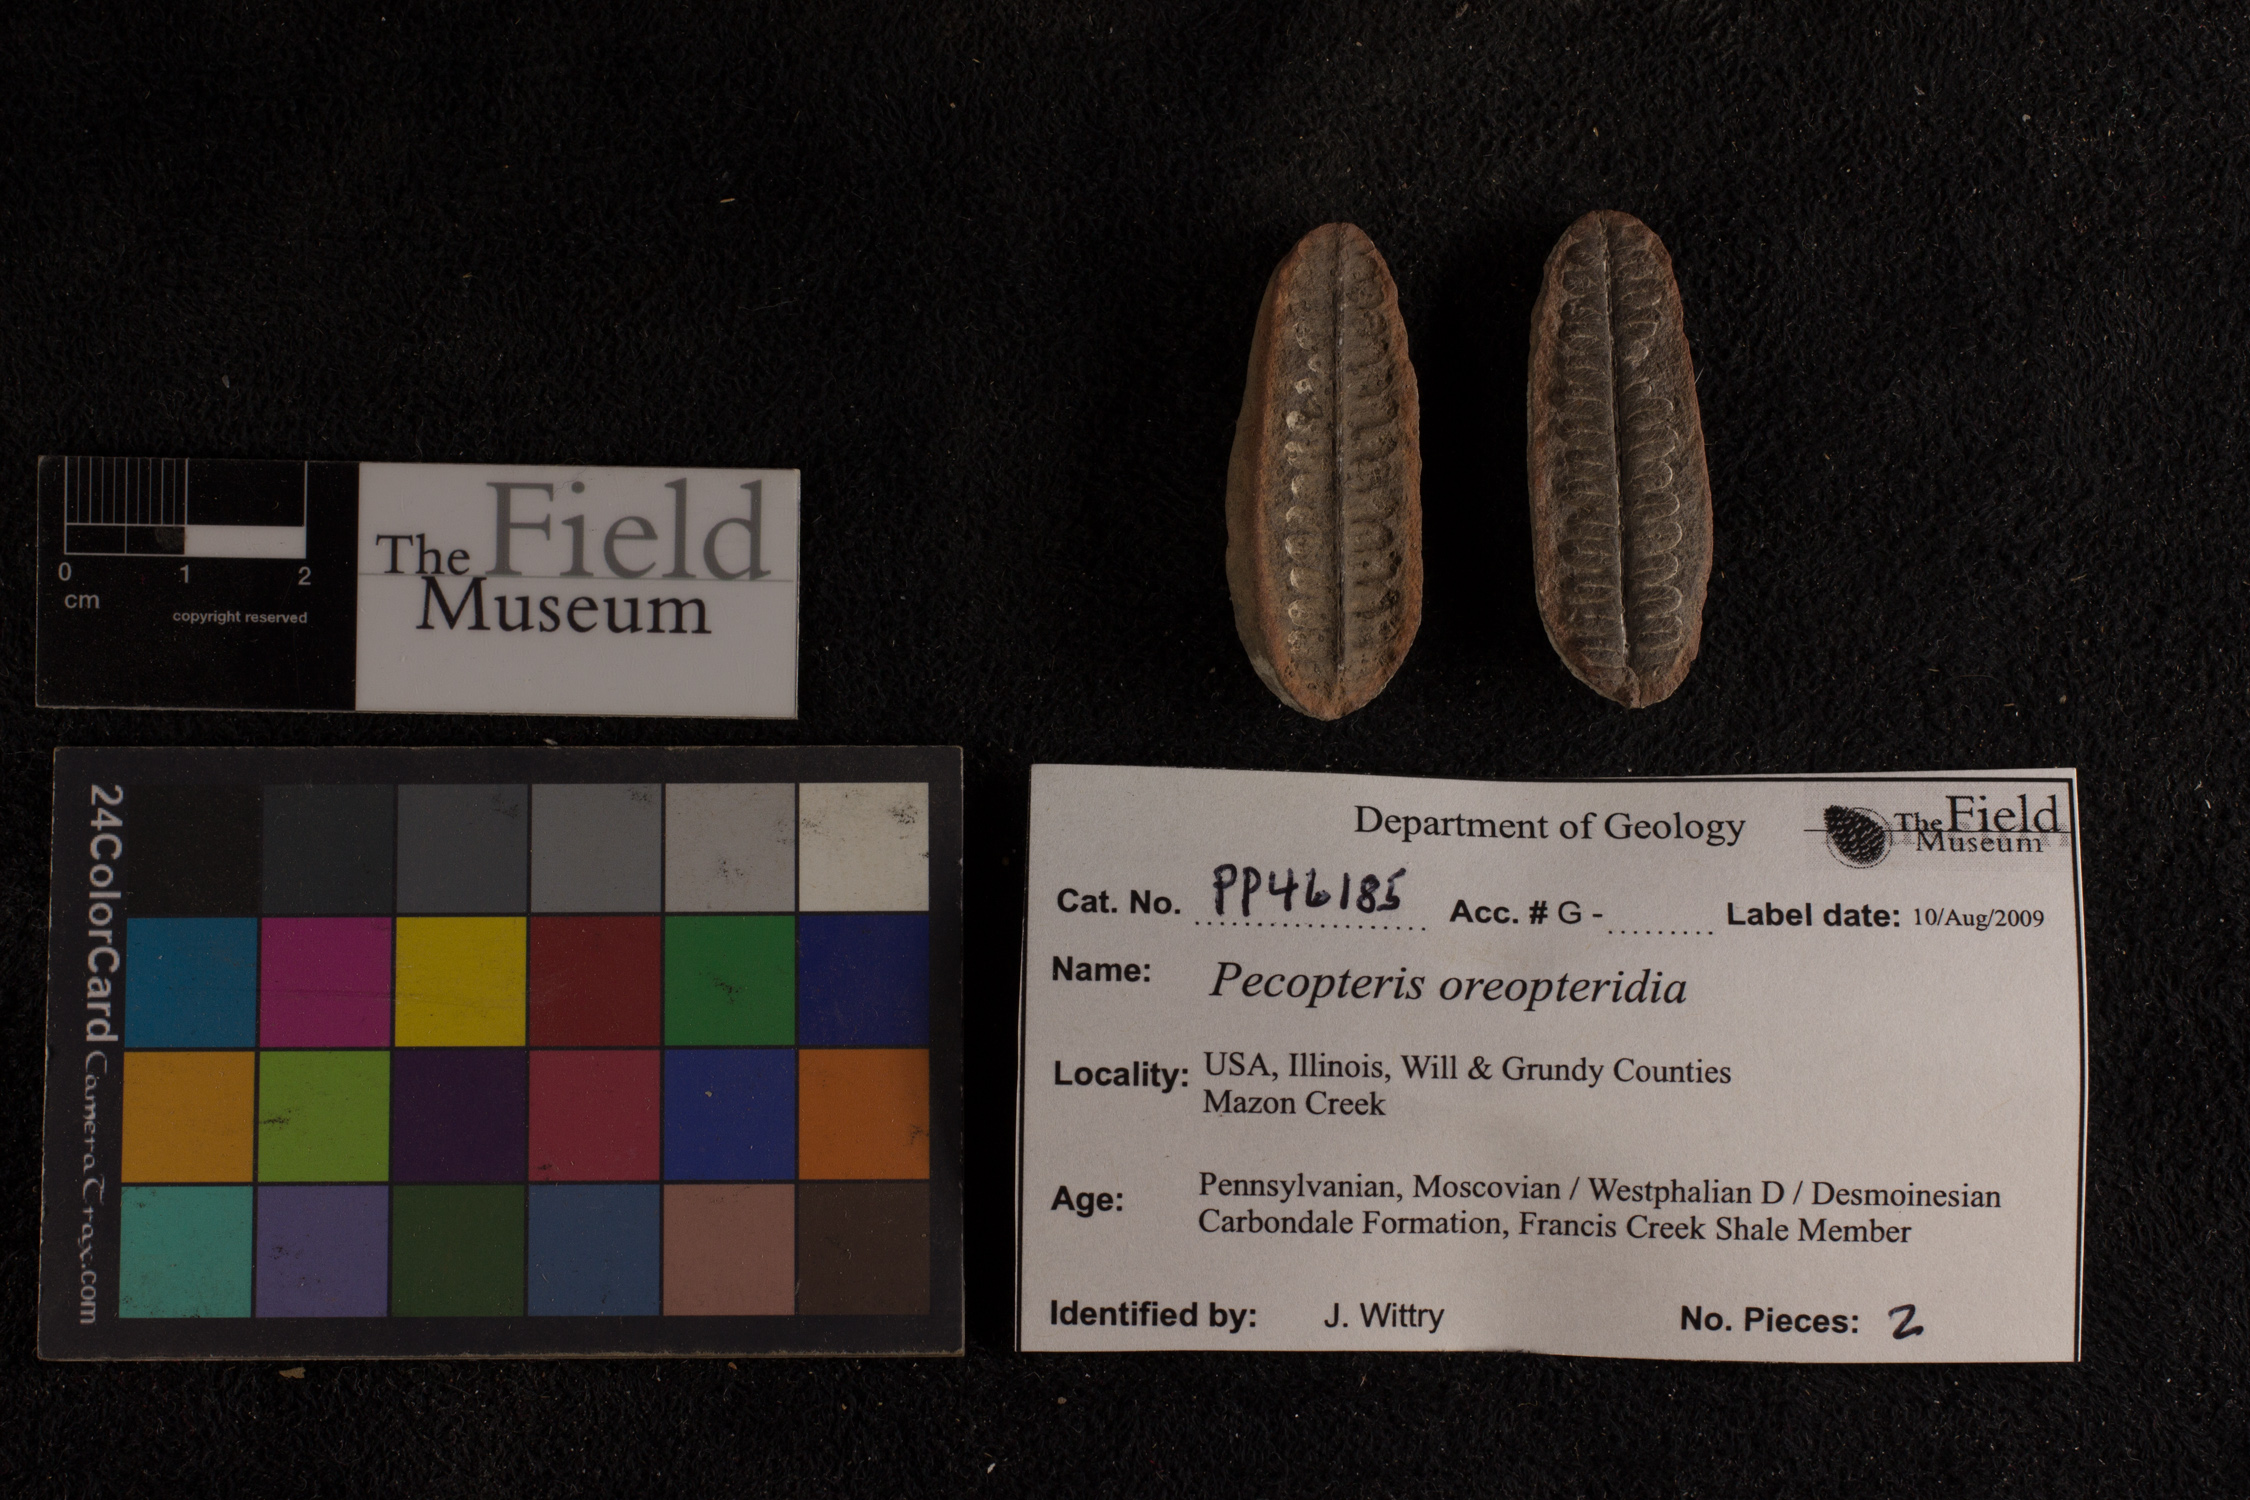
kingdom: Plantae
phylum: Tracheophyta
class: Polypodiopsida
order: Marattiales
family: Asterothecaceae
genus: Pecopteris
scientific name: Pecopteris
